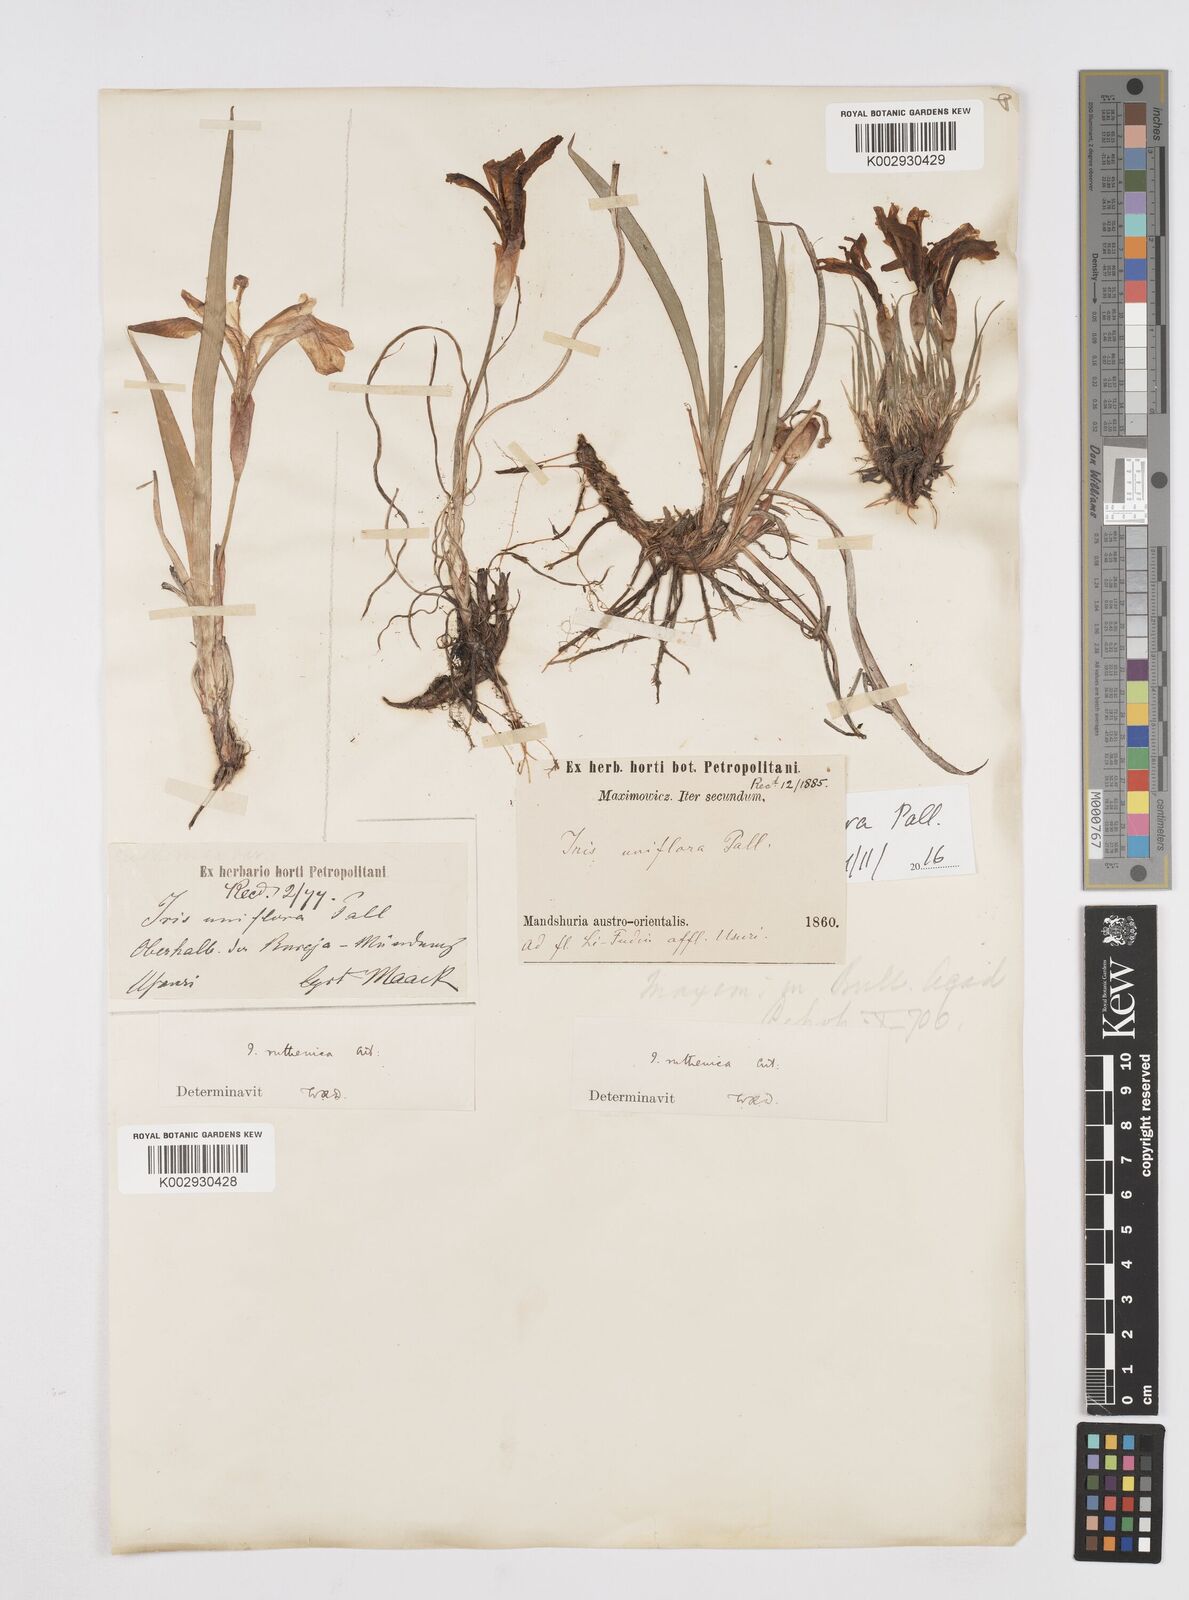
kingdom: Plantae
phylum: Tracheophyta
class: Liliopsida
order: Asparagales
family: Iridaceae
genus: Iris
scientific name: Iris uniflora
